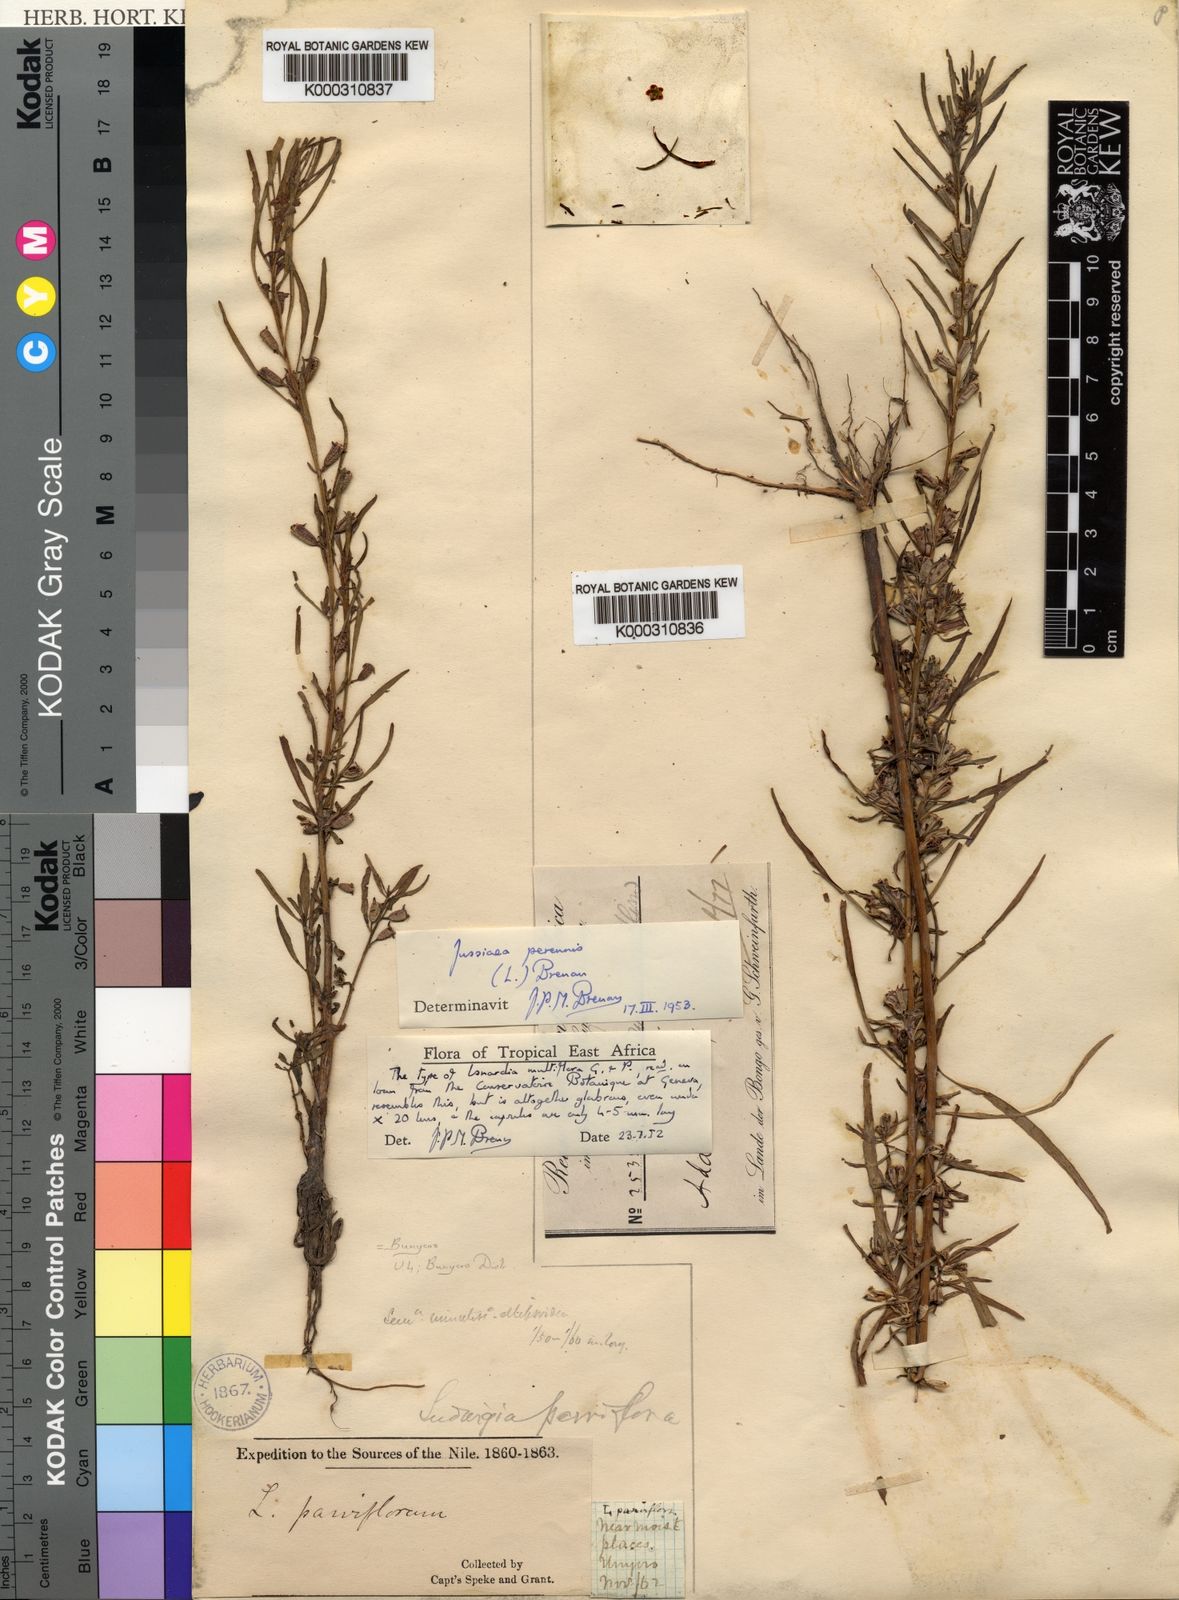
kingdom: Plantae
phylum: Tracheophyta
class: Magnoliopsida
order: Myrtales
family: Onagraceae
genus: Ludwigia
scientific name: Ludwigia perennis
